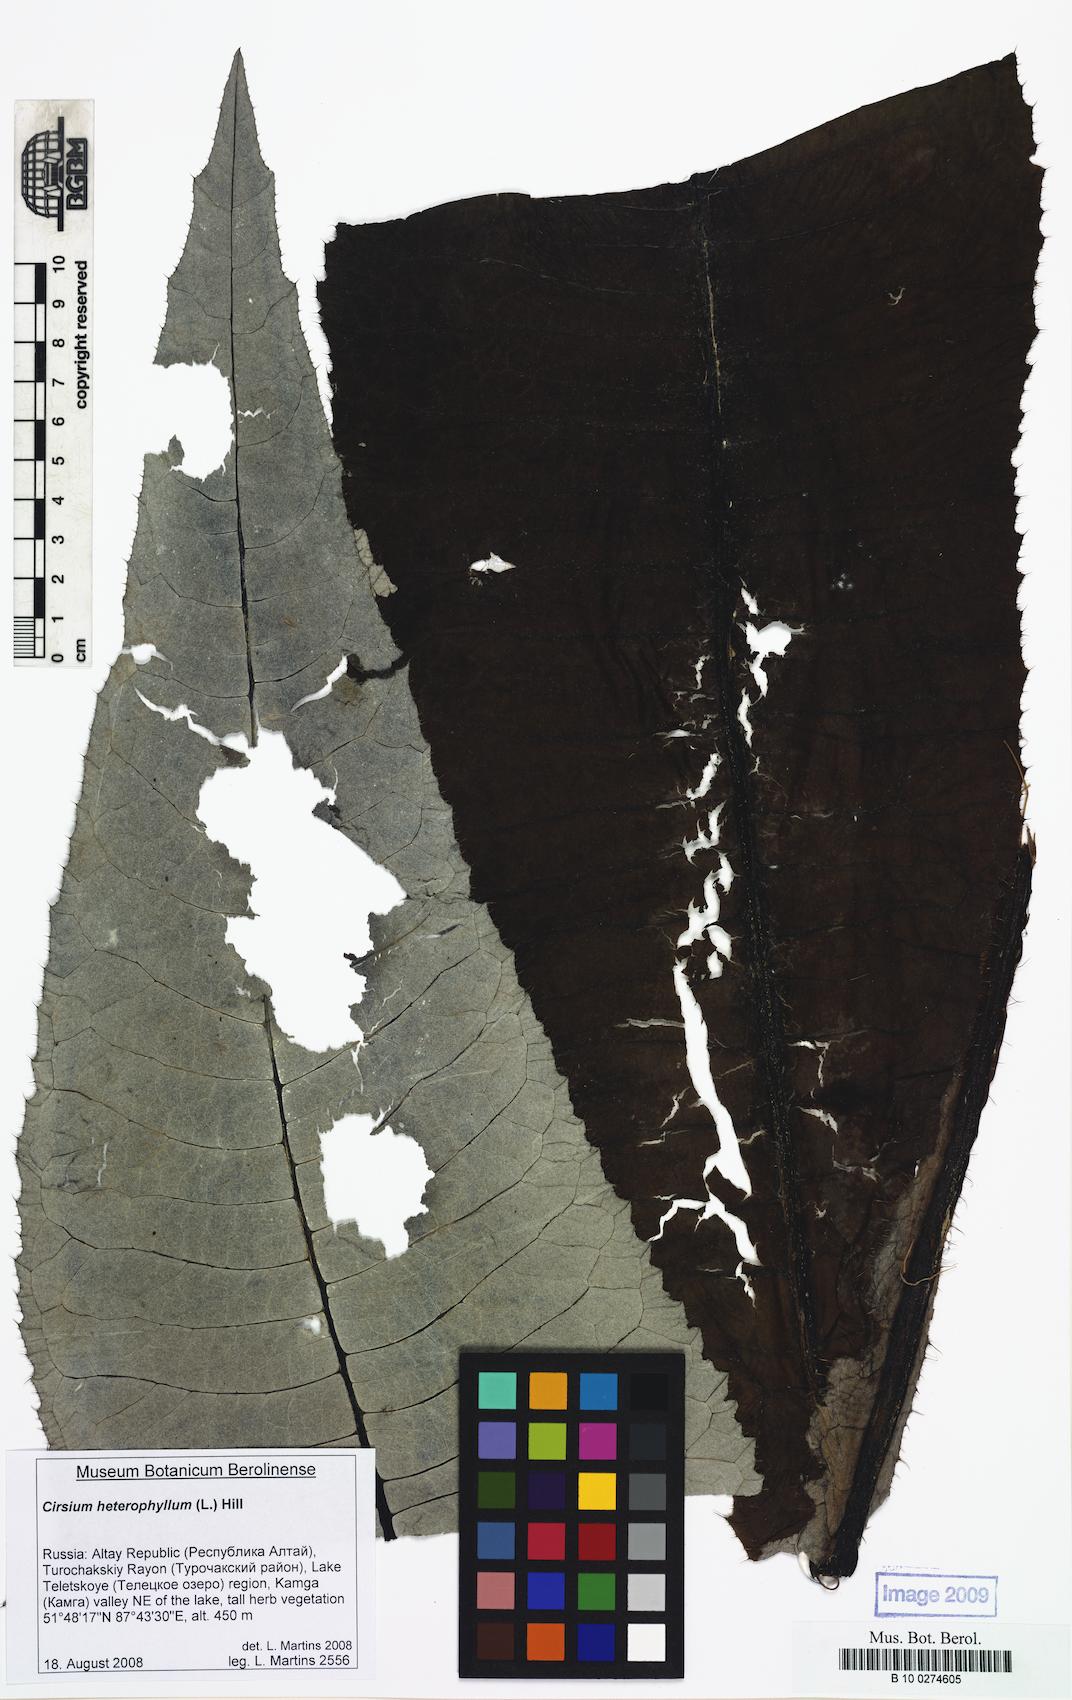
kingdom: Plantae
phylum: Tracheophyta
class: Magnoliopsida
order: Asterales
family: Asteraceae
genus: Cirsium
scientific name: Cirsium heterophyllum
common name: Melancholy thistle
